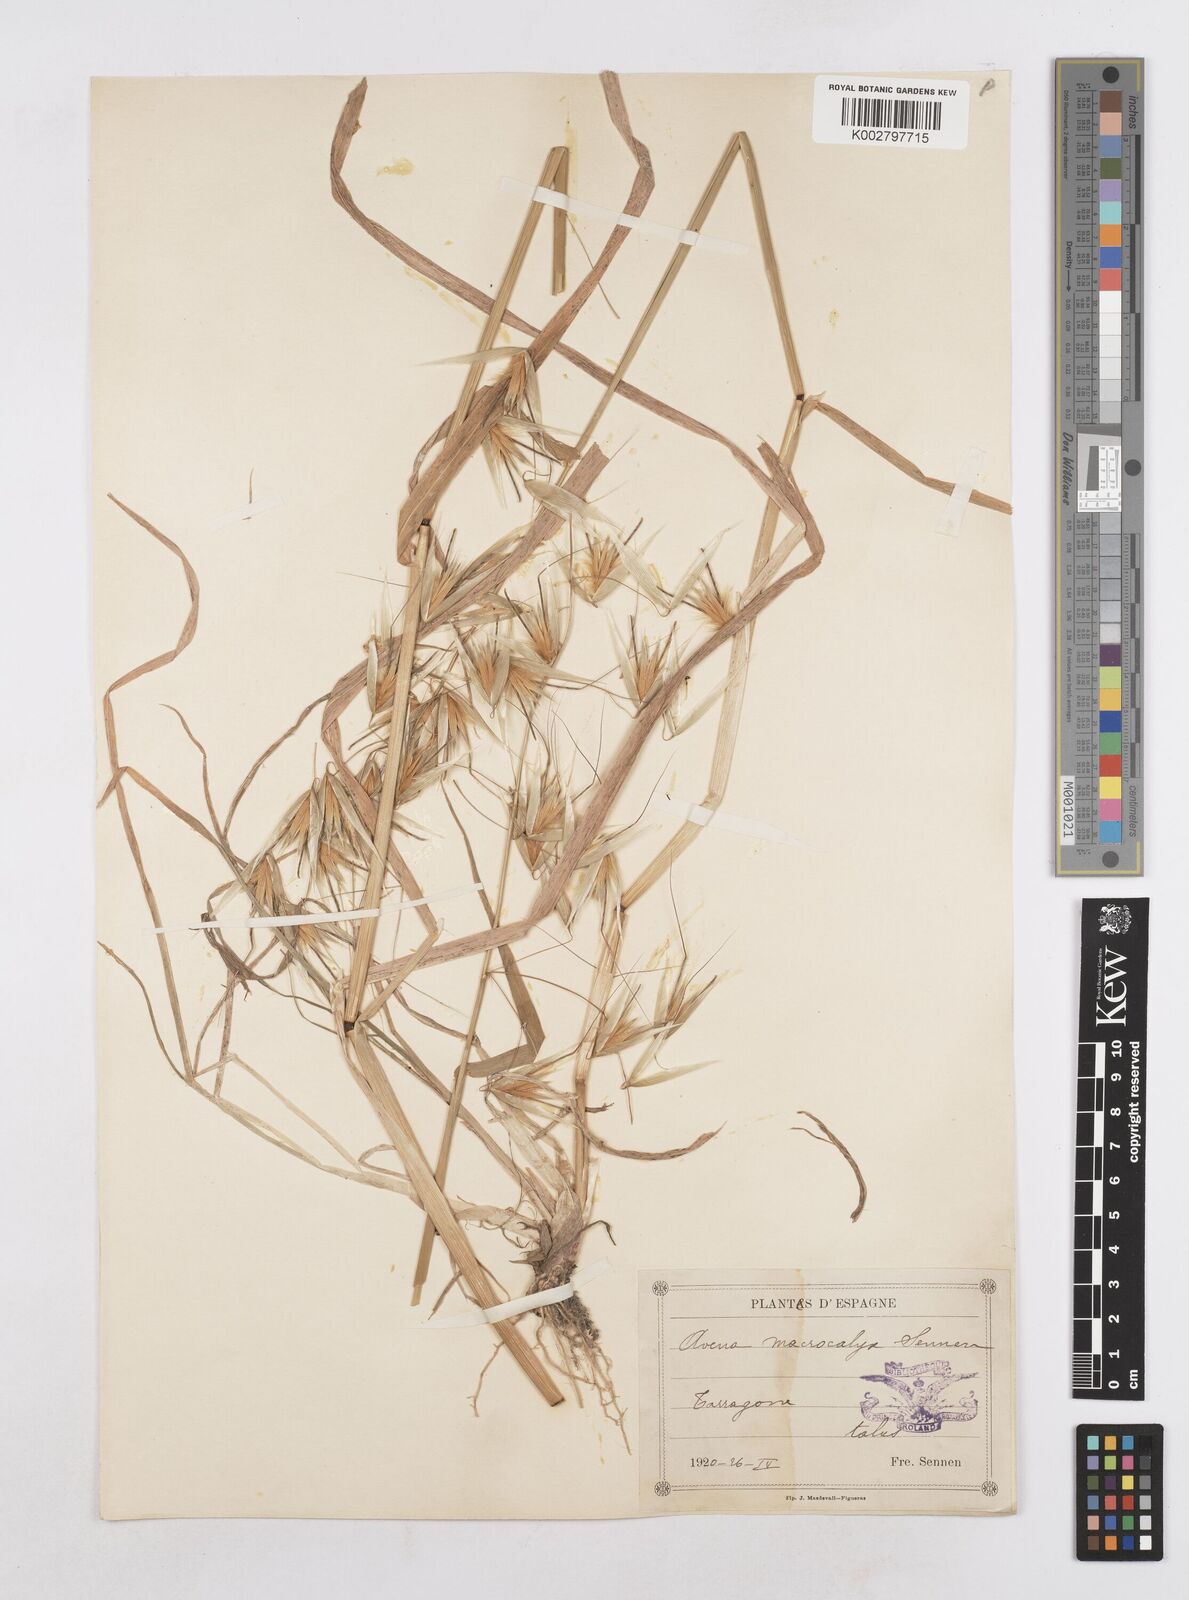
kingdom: Plantae
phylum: Tracheophyta
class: Liliopsida
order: Poales
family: Poaceae
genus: Avena
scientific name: Avena sterilis
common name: Animated oat
